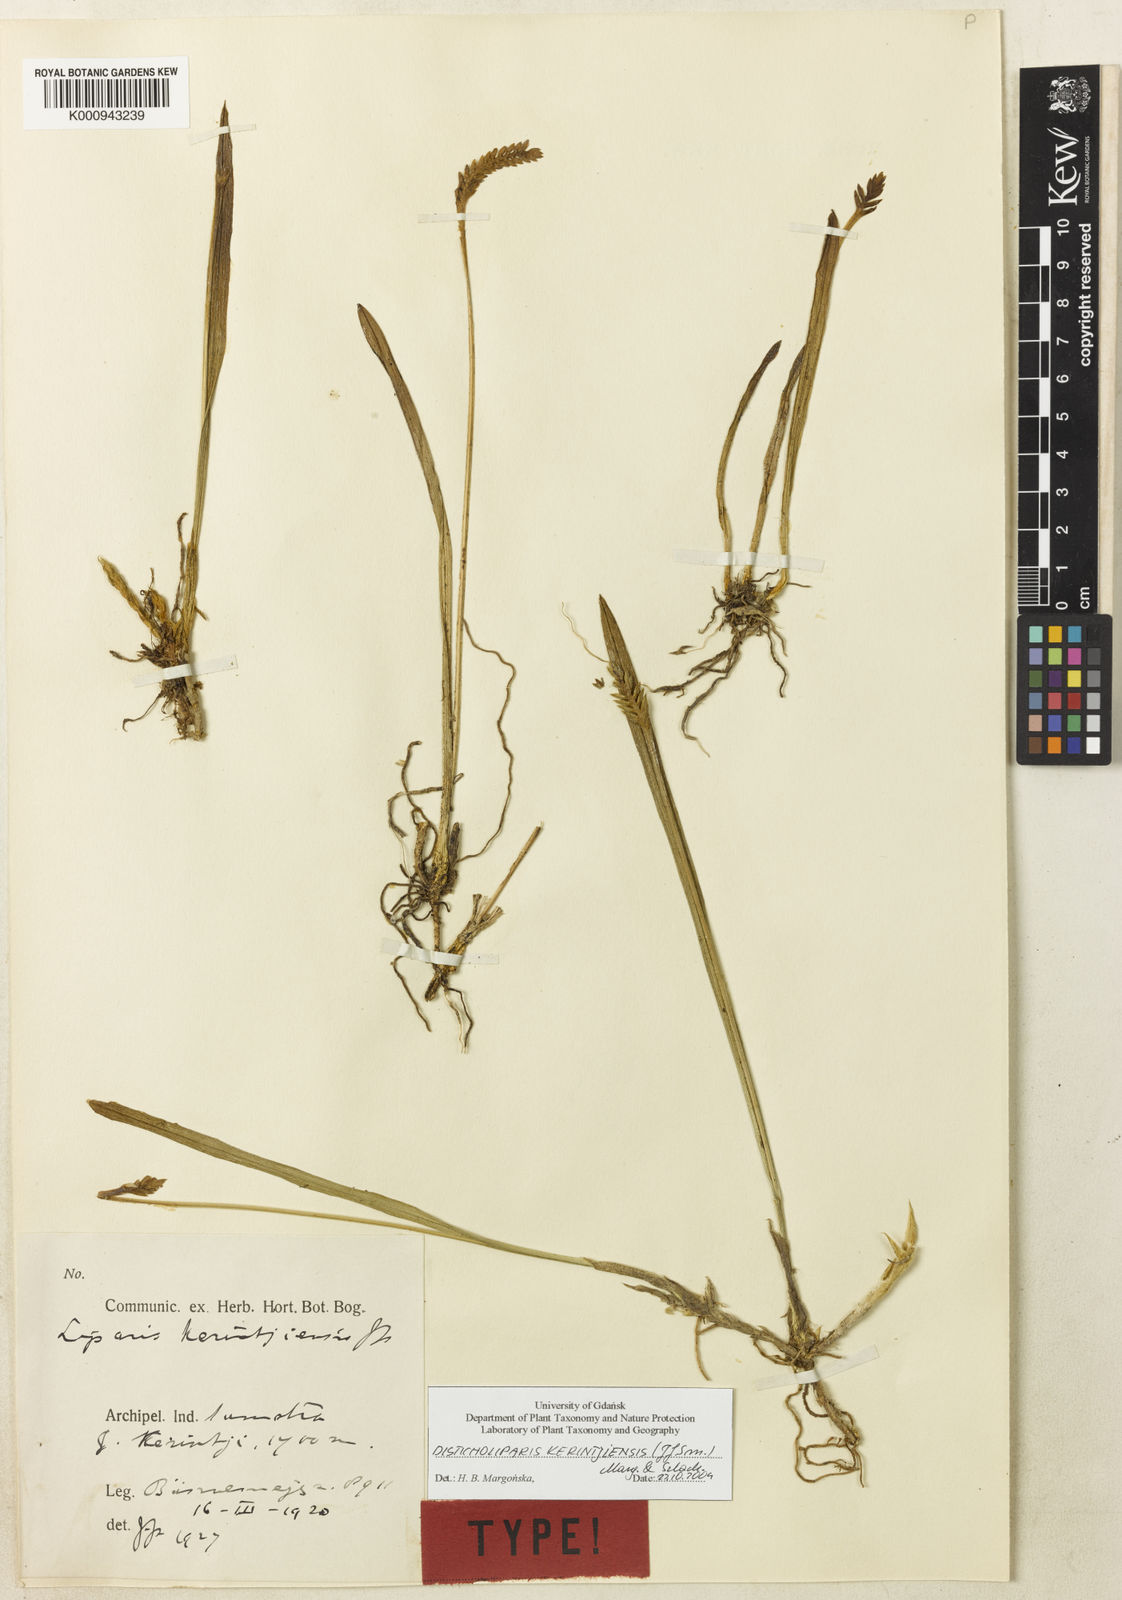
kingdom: Plantae
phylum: Tracheophyta
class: Liliopsida
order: Asparagales
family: Orchidaceae
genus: Liparis
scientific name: Liparis kerintjiensis
